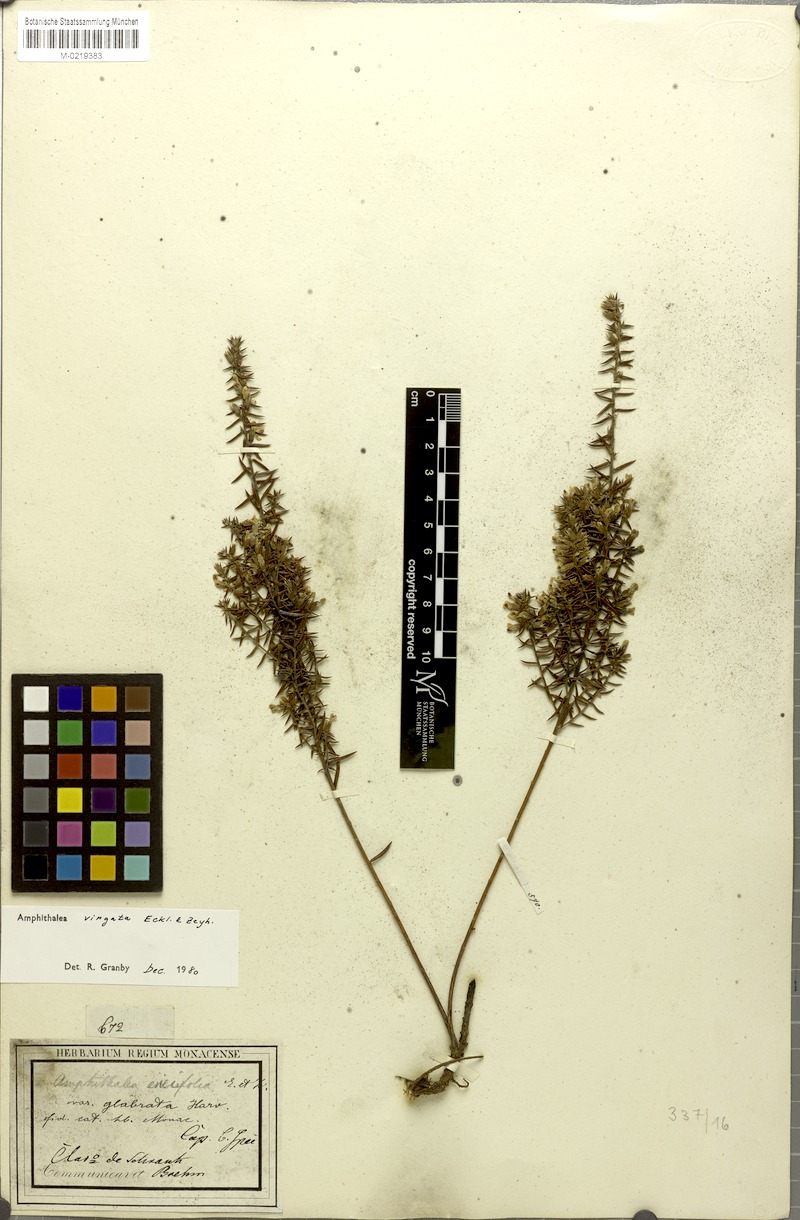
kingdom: Plantae
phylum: Tracheophyta
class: Magnoliopsida
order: Fabales
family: Fabaceae
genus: Amphithalea
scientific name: Amphithalea virgata
